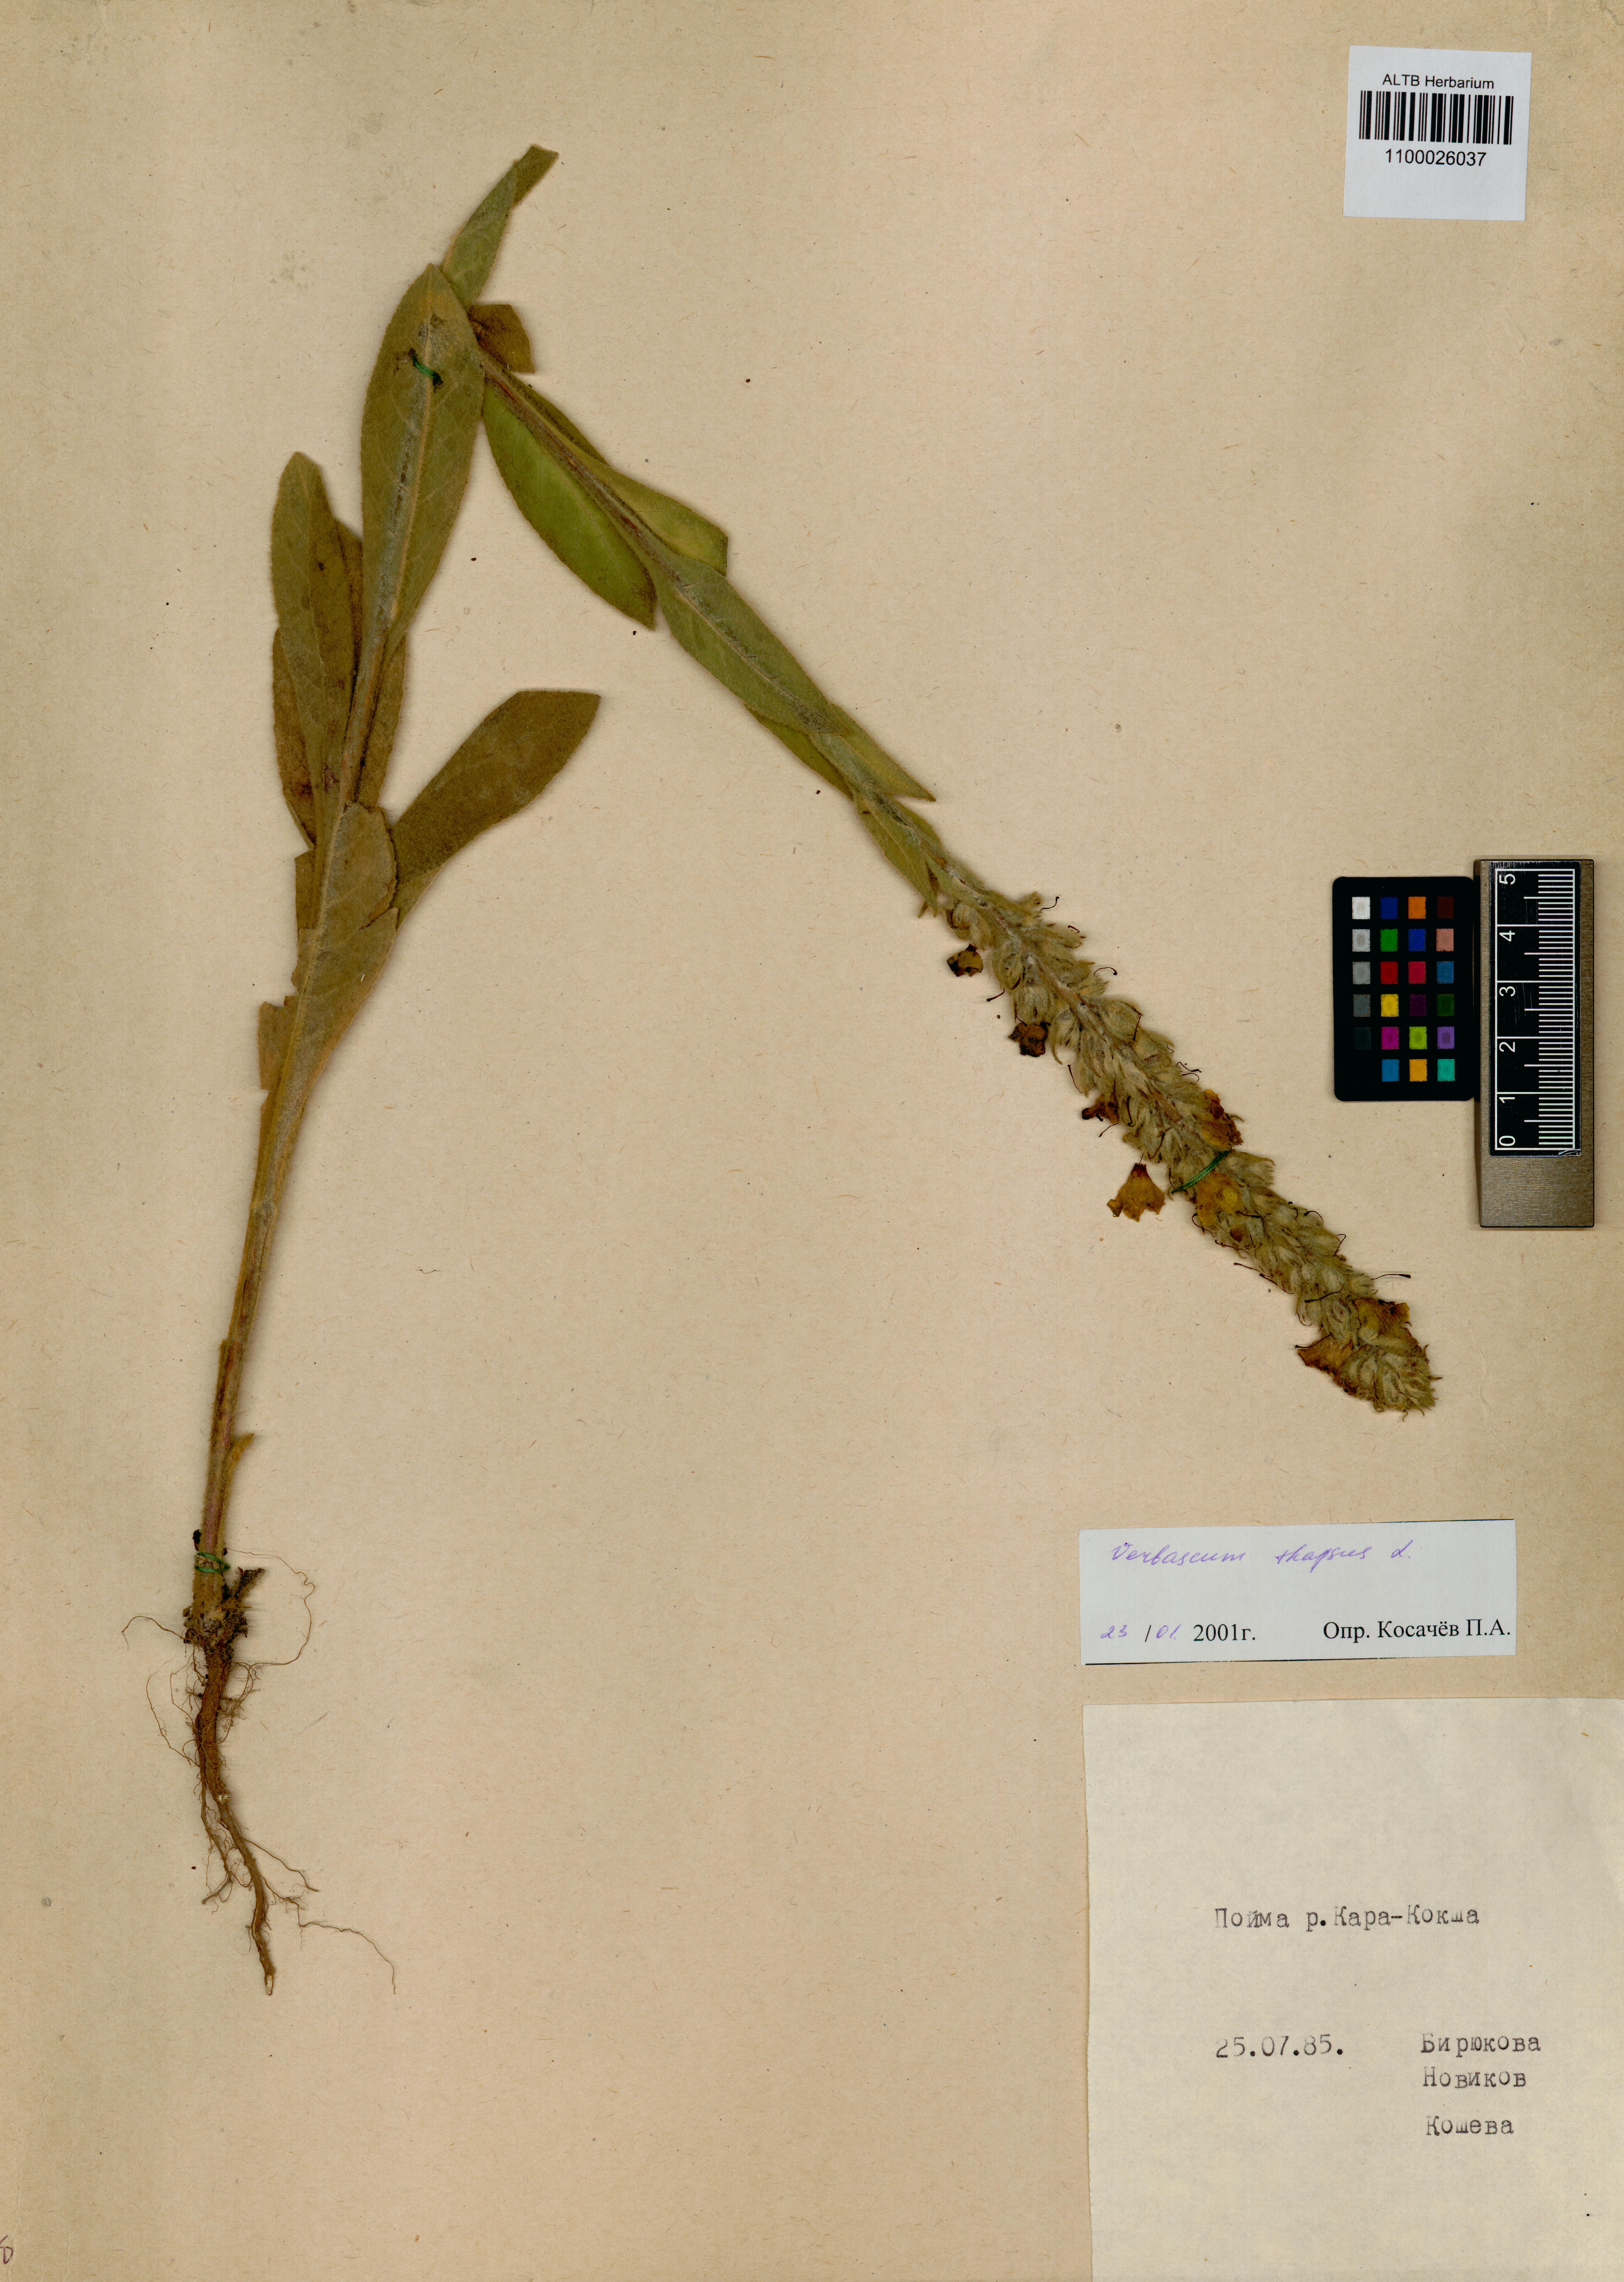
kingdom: Plantae
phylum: Tracheophyta
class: Magnoliopsida
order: Lamiales
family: Scrophulariaceae
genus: Verbascum
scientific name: Verbascum thapsus
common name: Common mullein
